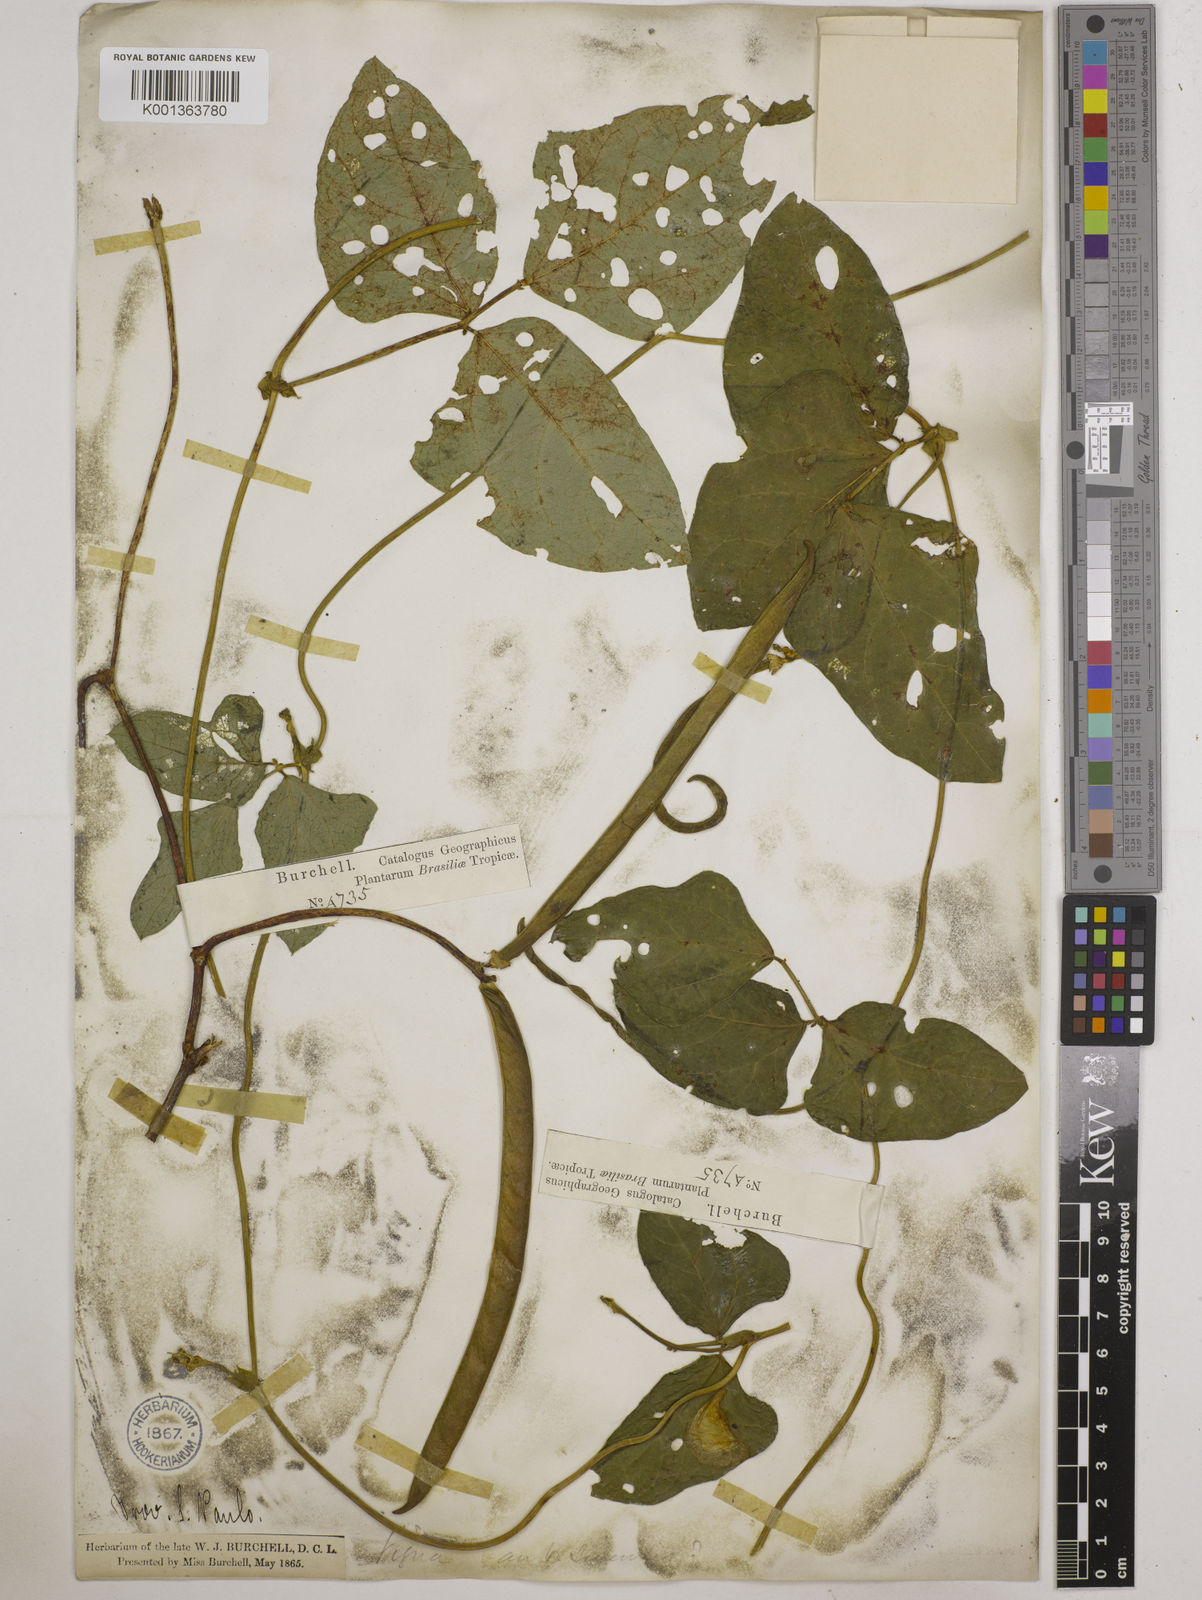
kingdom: Plantae
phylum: Tracheophyta
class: Magnoliopsida
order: Fabales
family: Fabaceae
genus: Vigna
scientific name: Vigna unguiculata
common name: Cowpea
